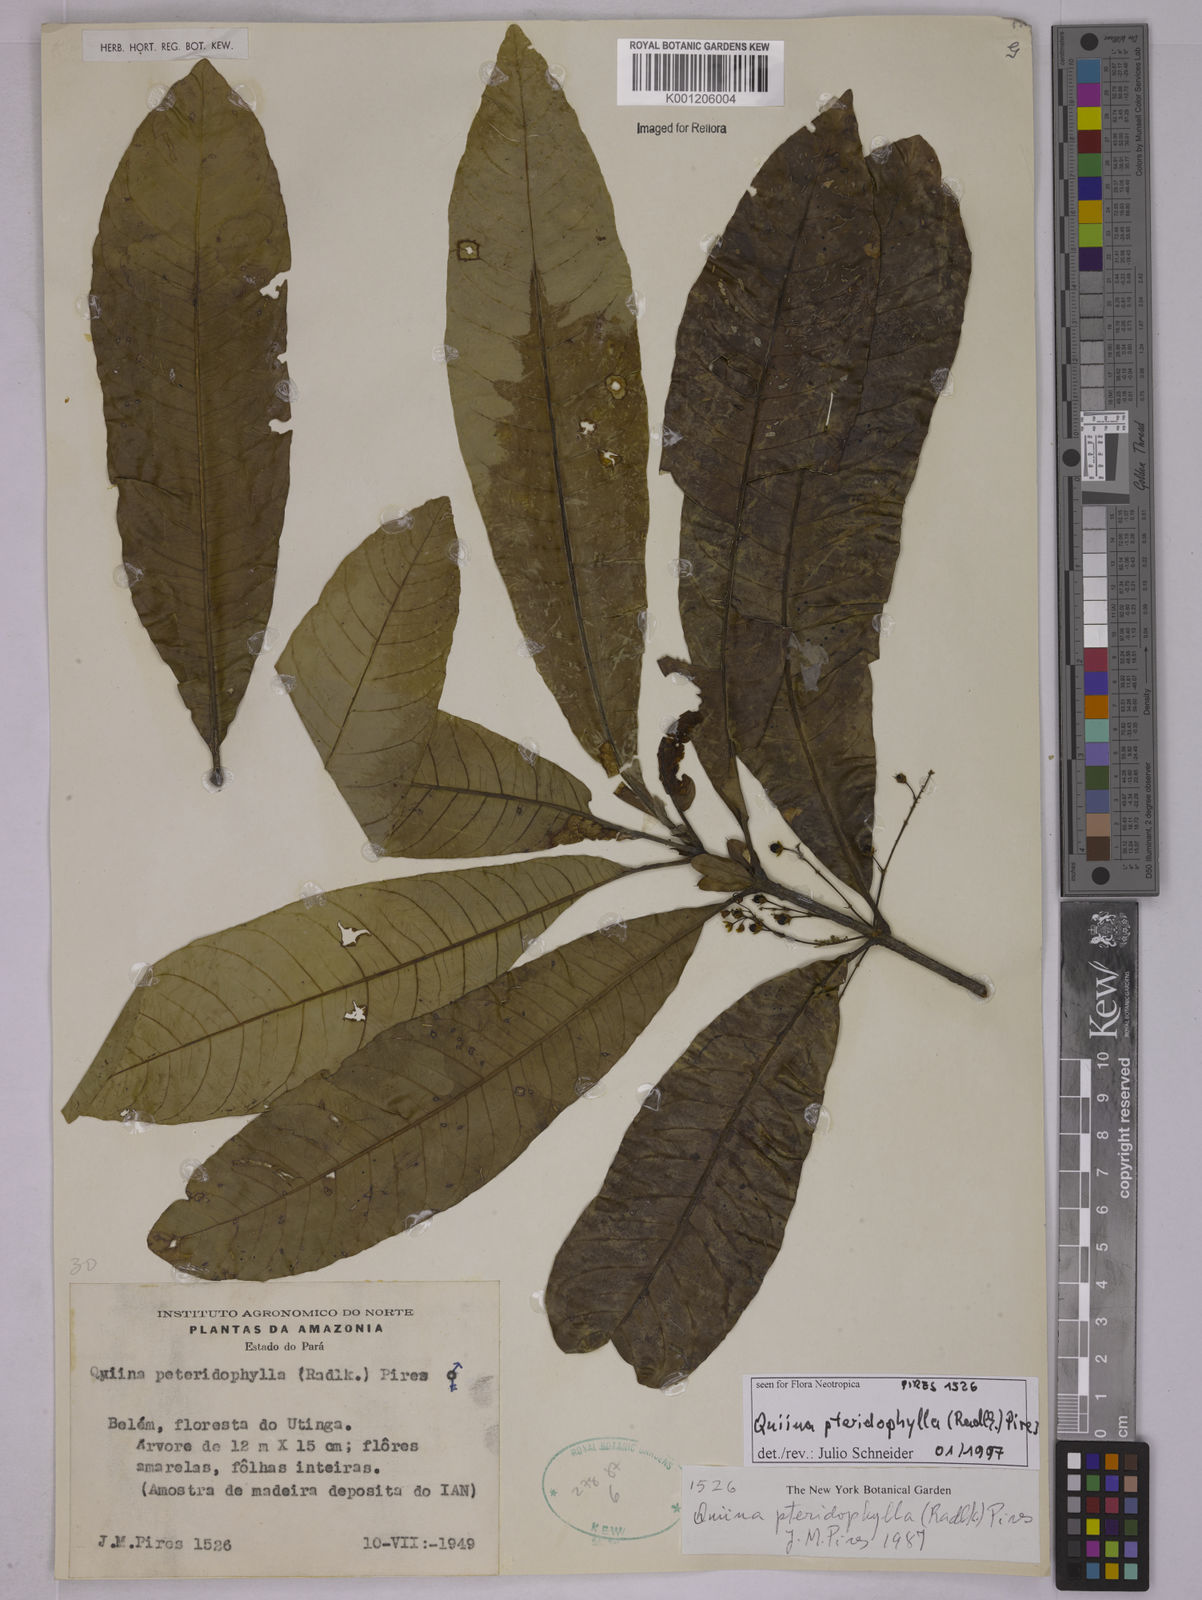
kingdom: Plantae
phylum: Tracheophyta
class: Magnoliopsida
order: Malpighiales
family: Quiinaceae
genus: Quiina
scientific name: Quiina pteridophylla
